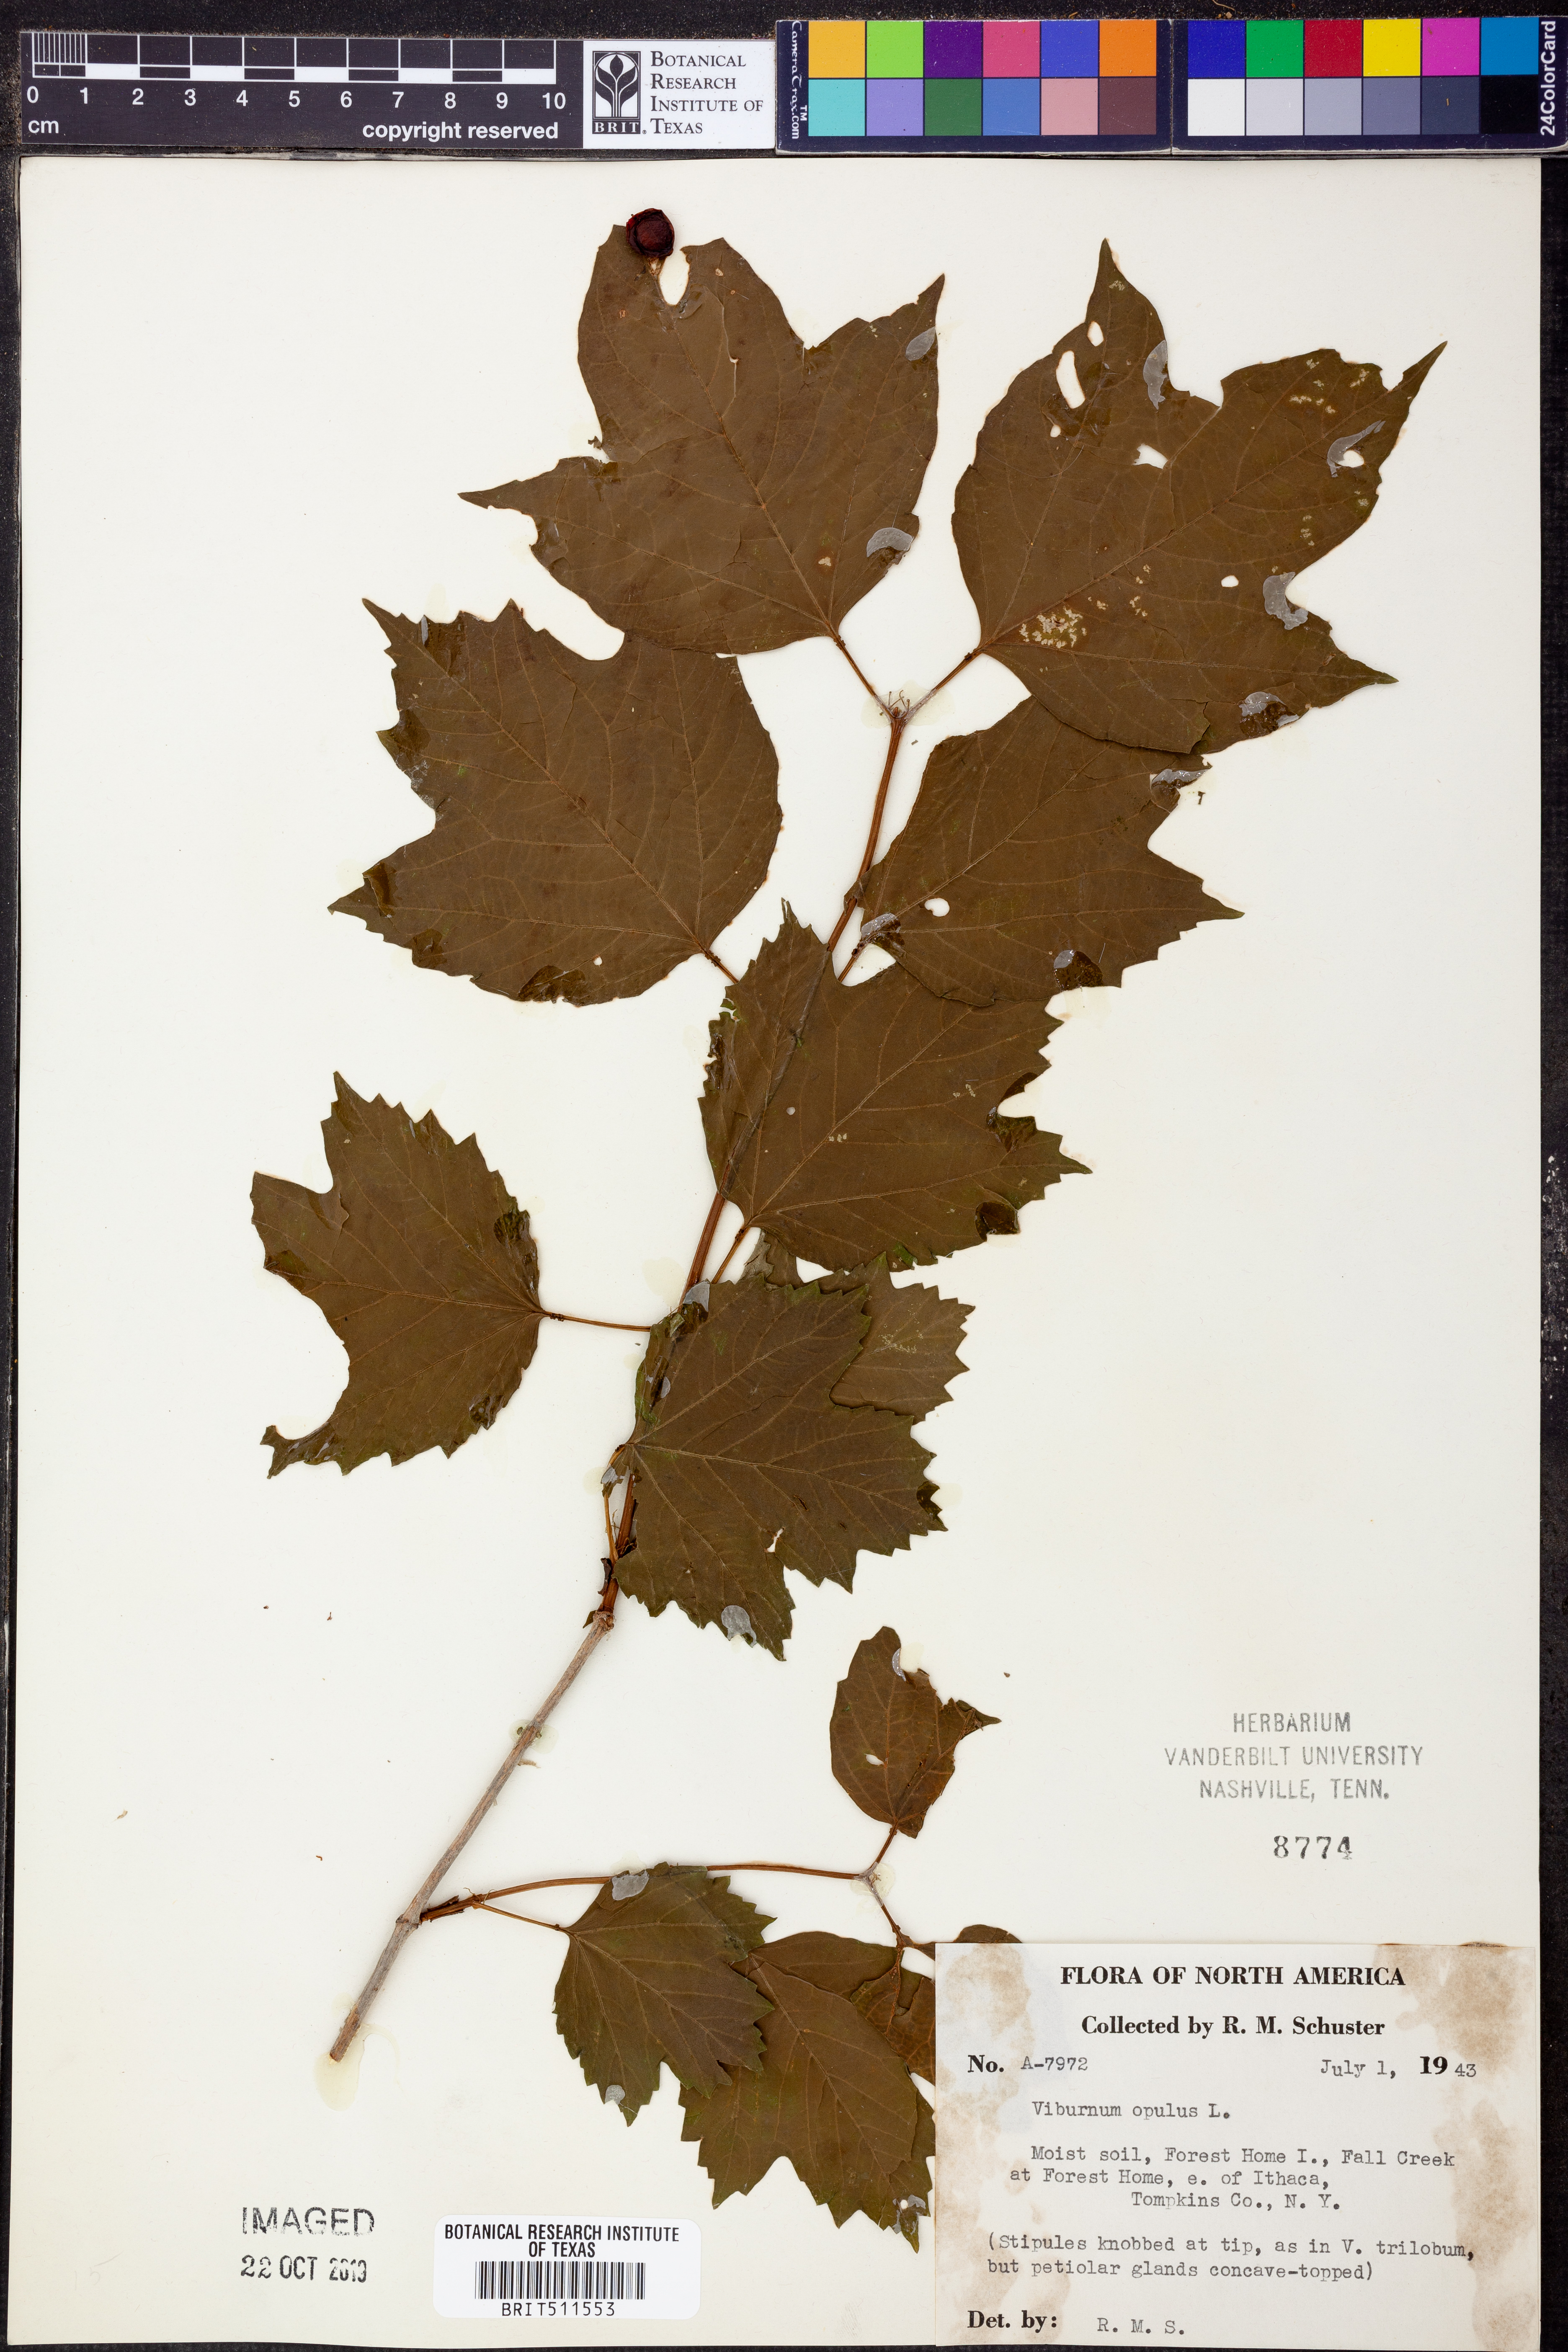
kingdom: Plantae
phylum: Tracheophyta
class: Magnoliopsida
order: Dipsacales
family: Viburnaceae
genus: Viburnum
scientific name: Viburnum opulus
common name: Guelder-rose
